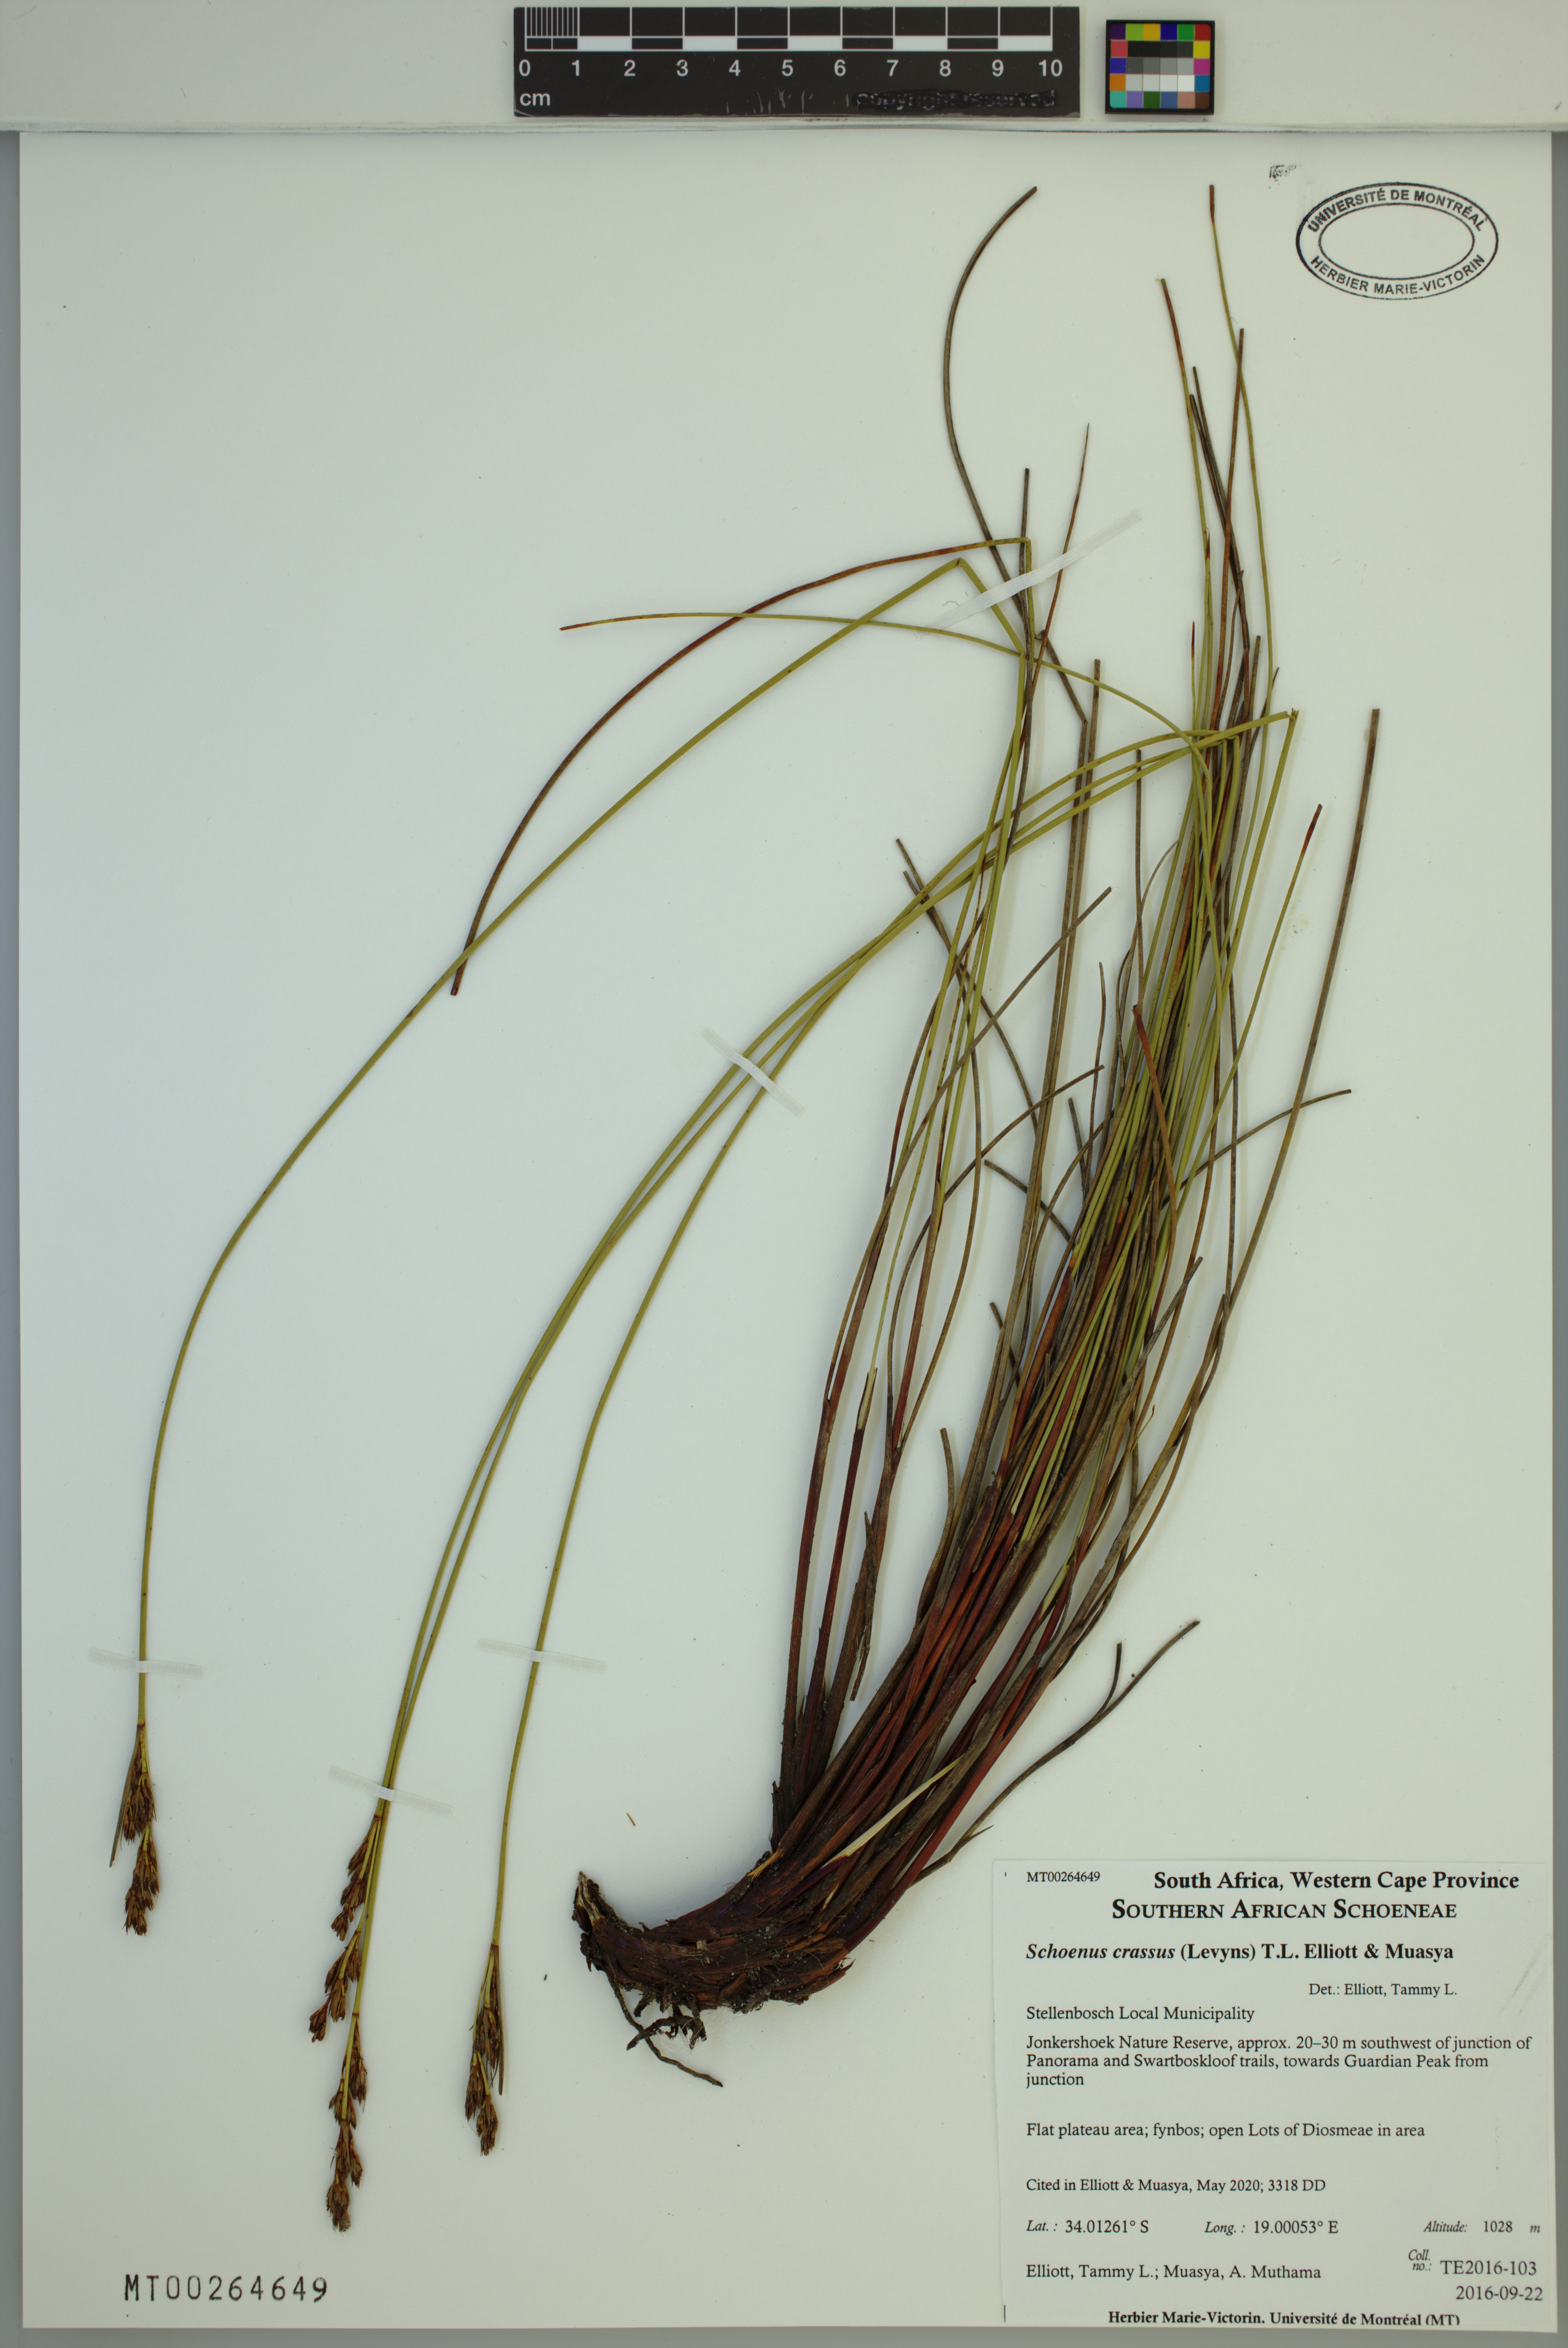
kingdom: Plantae
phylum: Tracheophyta
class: Liliopsida
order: Poales
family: Cyperaceae
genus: Schoenus
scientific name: Schoenus crassus
